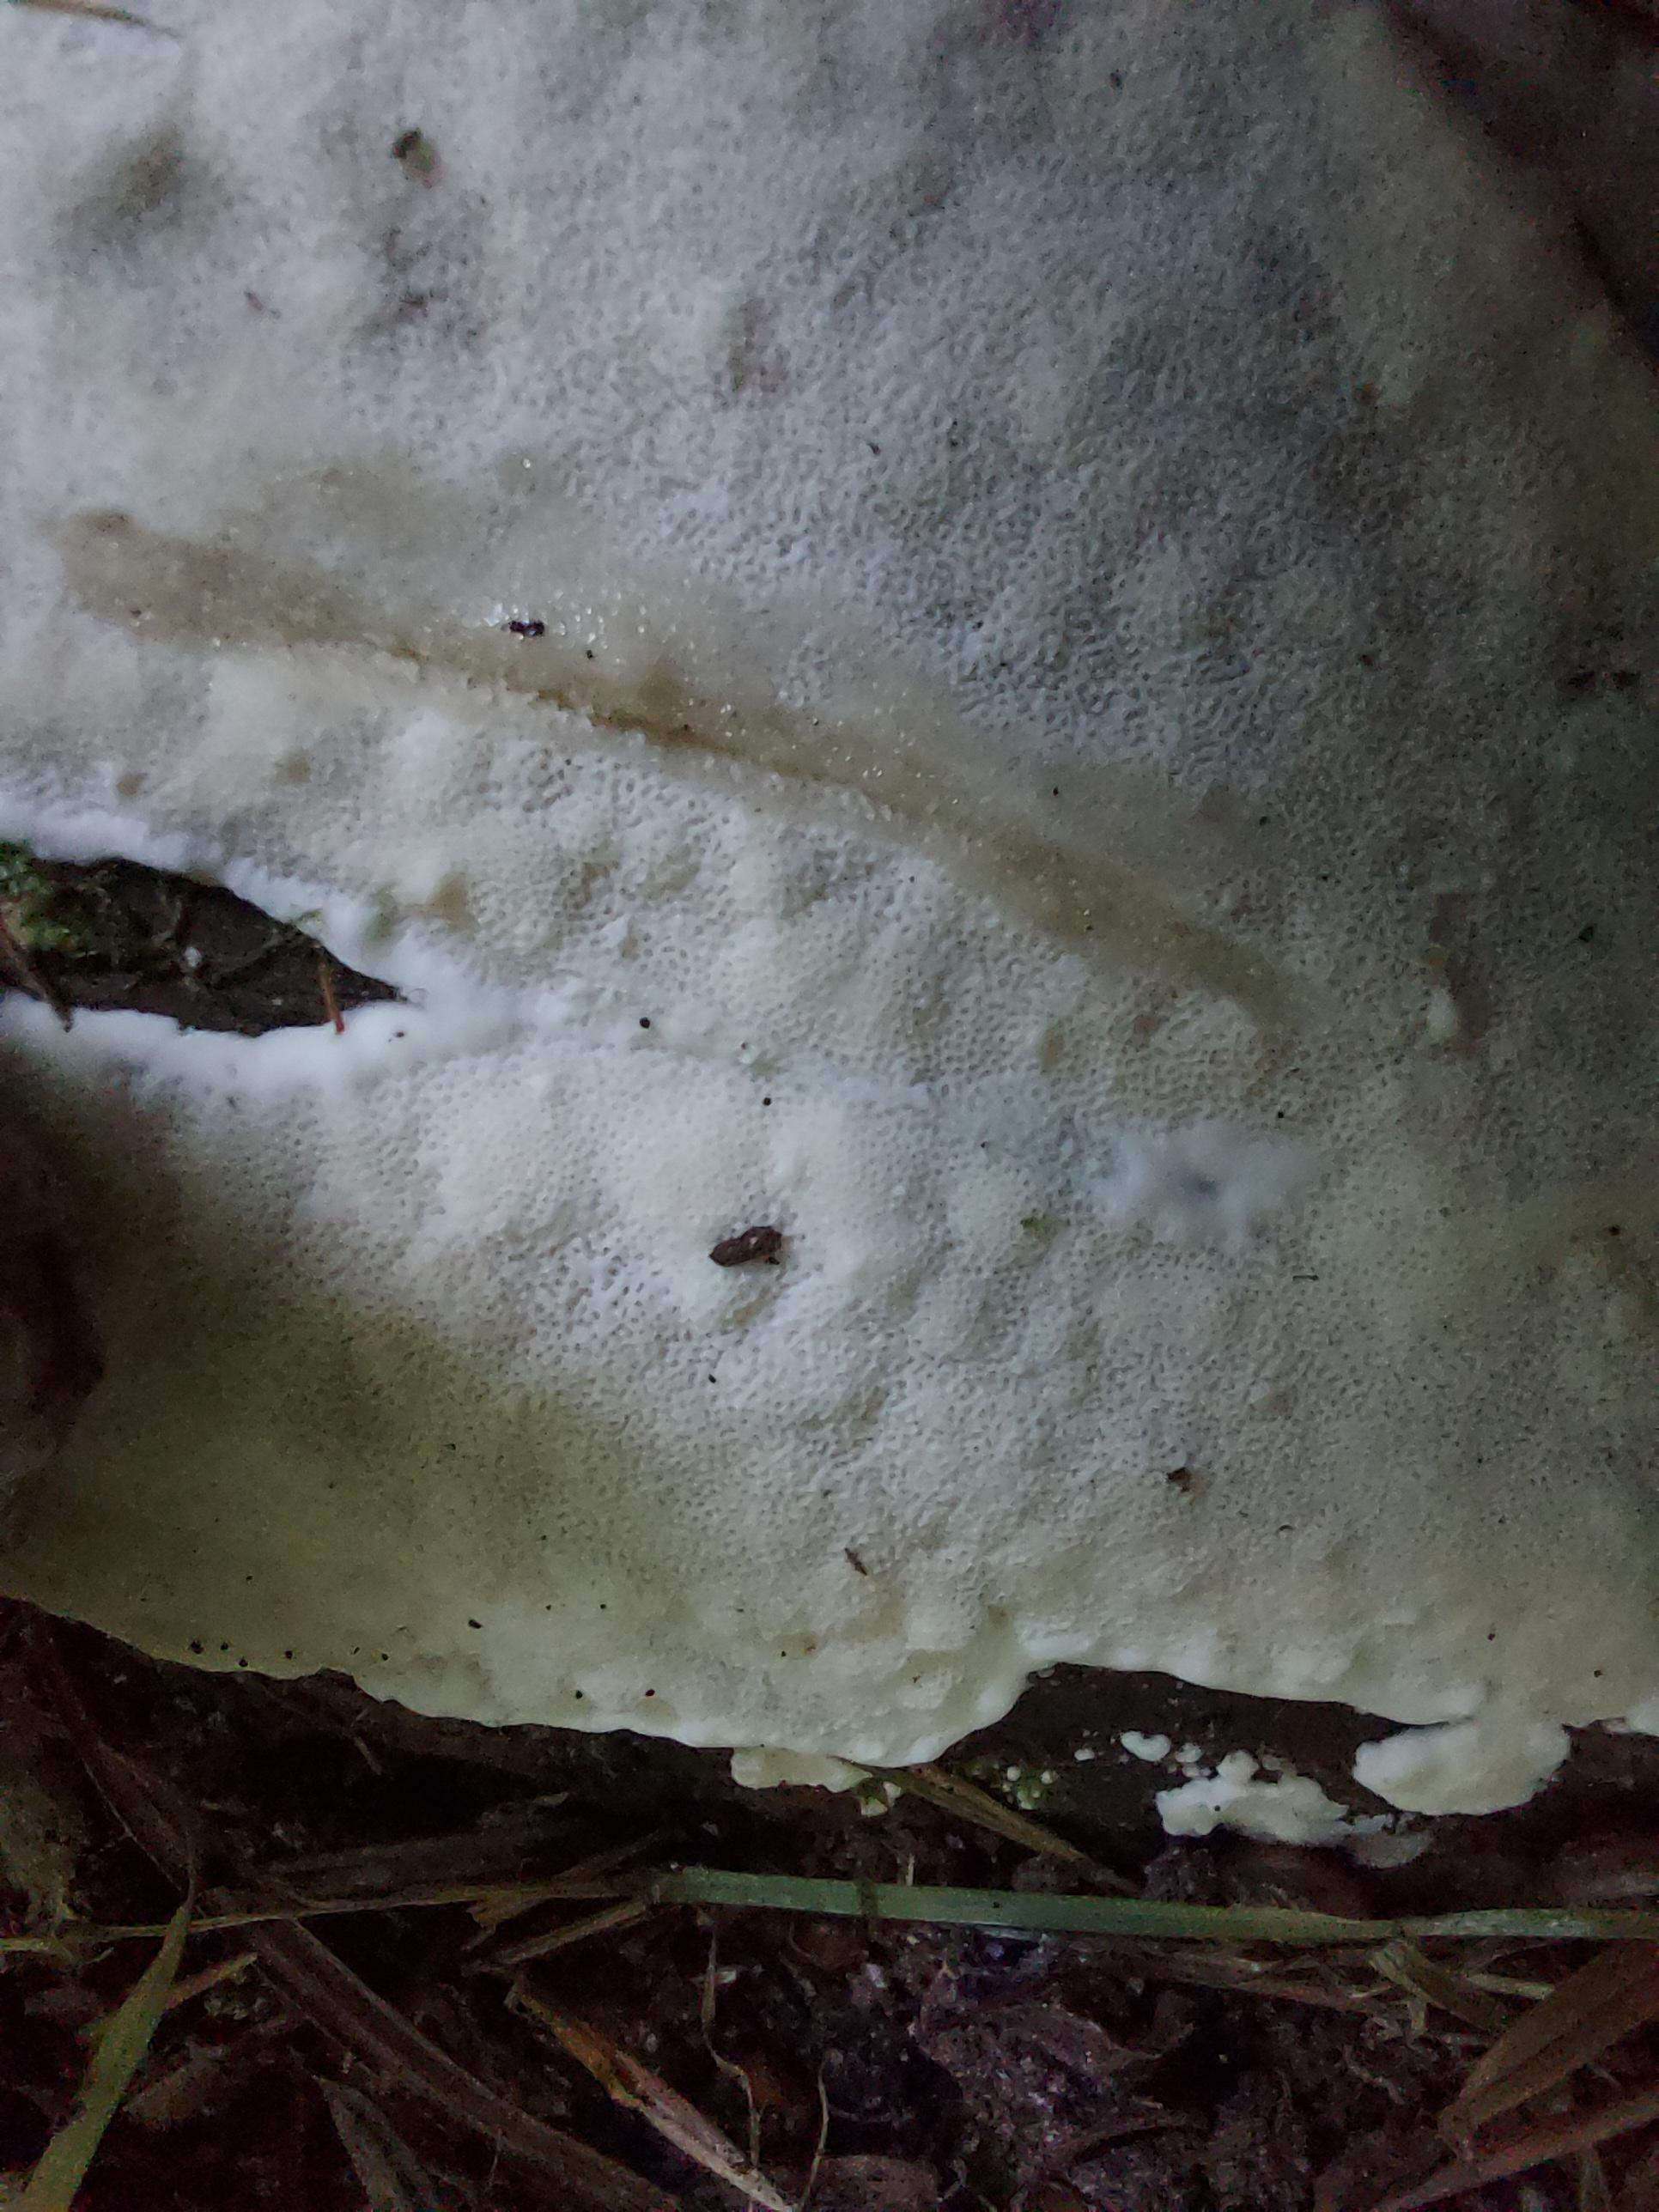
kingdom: Fungi
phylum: Basidiomycota
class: Agaricomycetes
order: Polyporales
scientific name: Polyporales
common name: poresvampordenen
